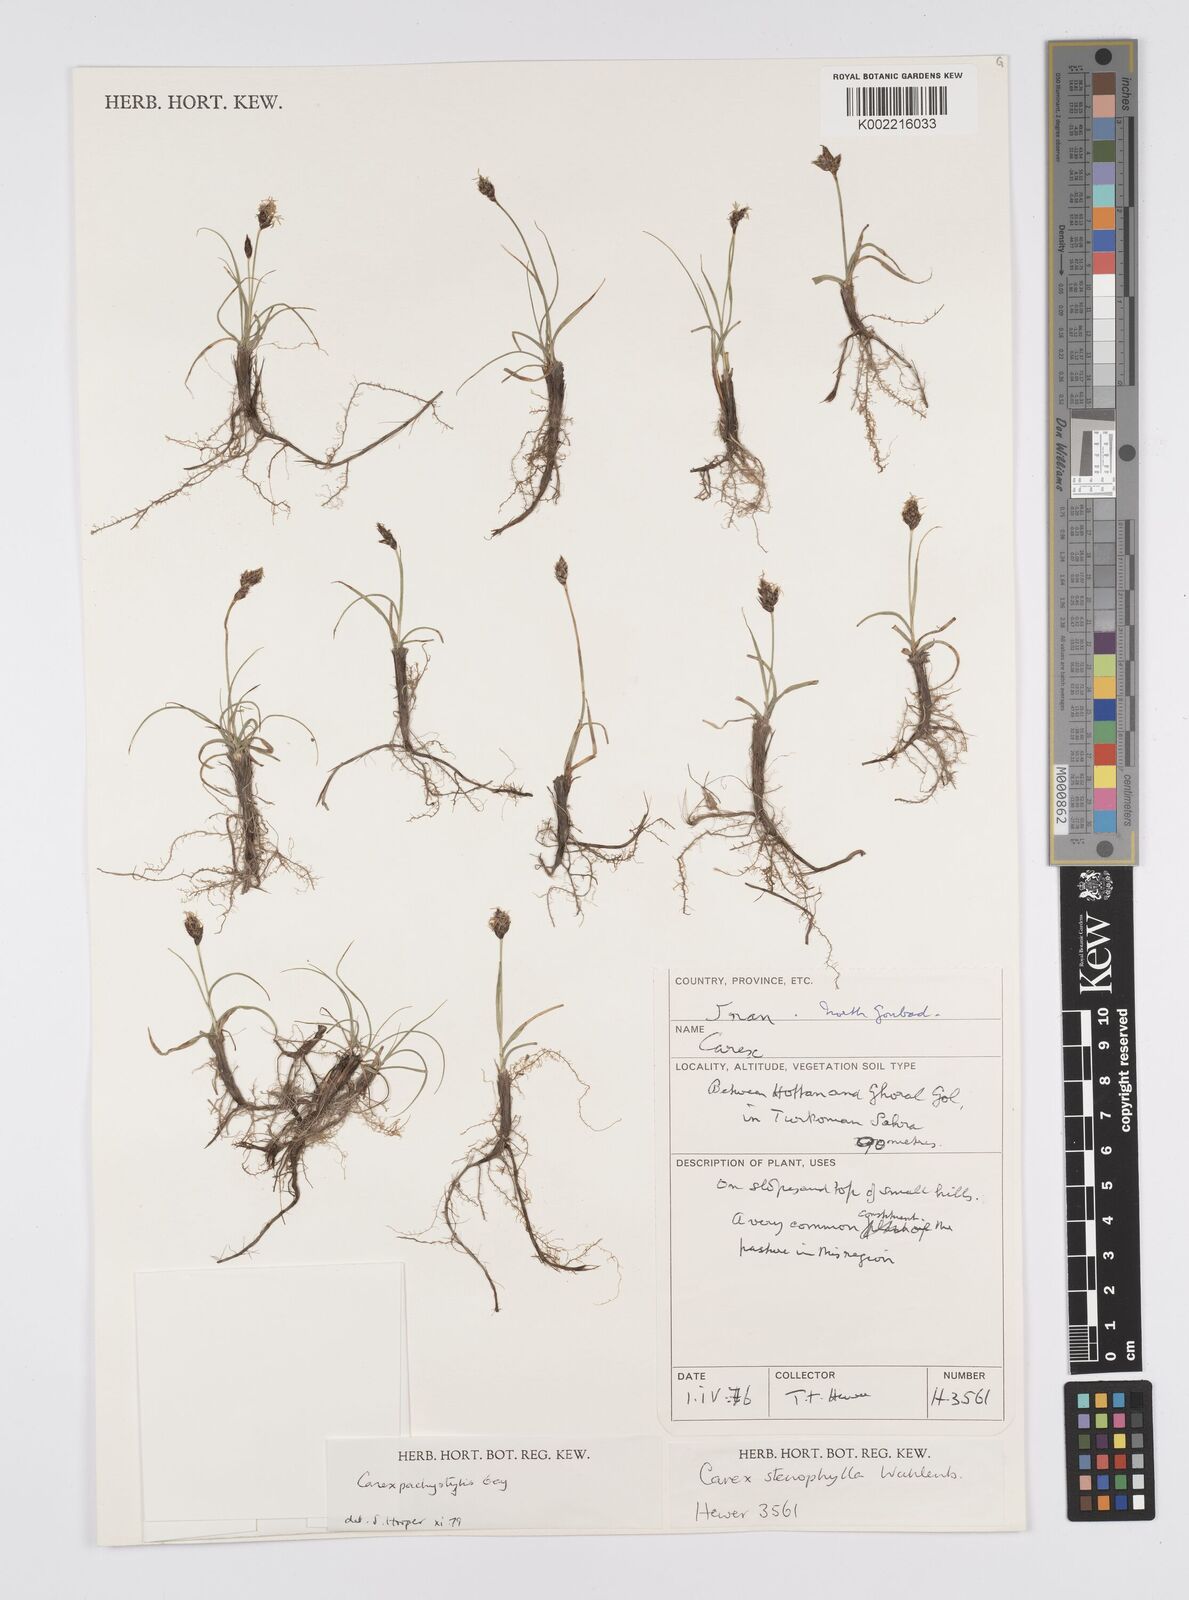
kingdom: Plantae
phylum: Tracheophyta
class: Liliopsida
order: Poales
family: Cyperaceae
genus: Carex
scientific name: Carex pachystylis
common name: Thick-stem sedge
